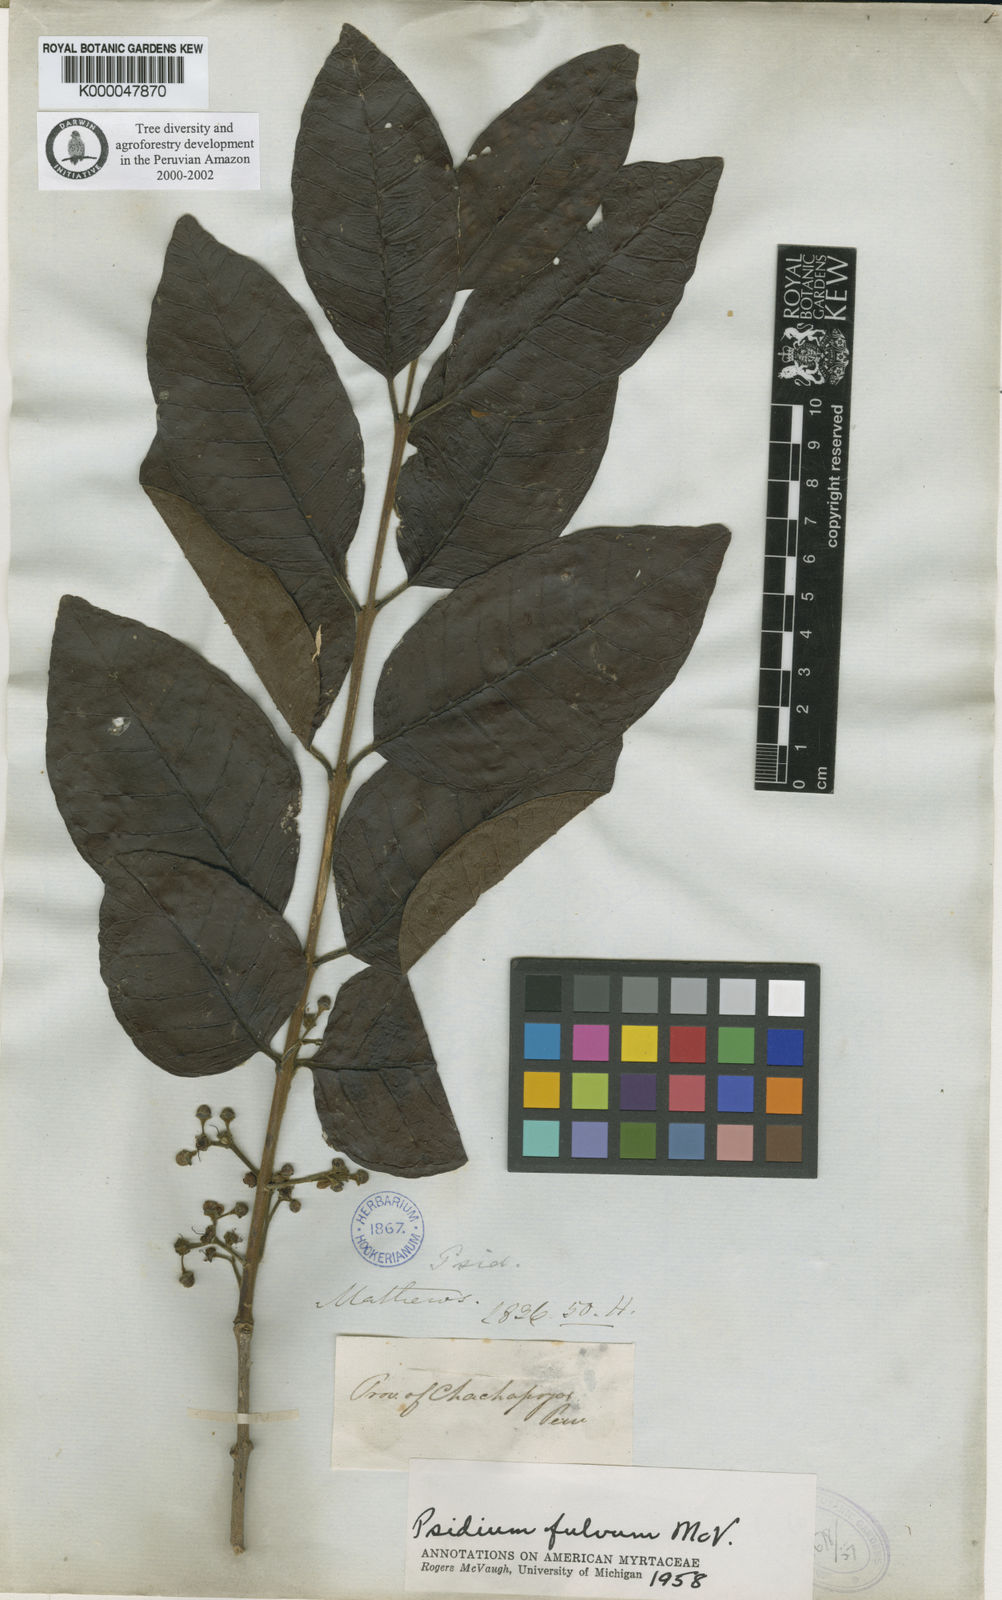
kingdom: Plantae
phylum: Tracheophyta
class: Magnoliopsida
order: Myrtales
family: Myrtaceae
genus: Psidium
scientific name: Psidium fulvum
